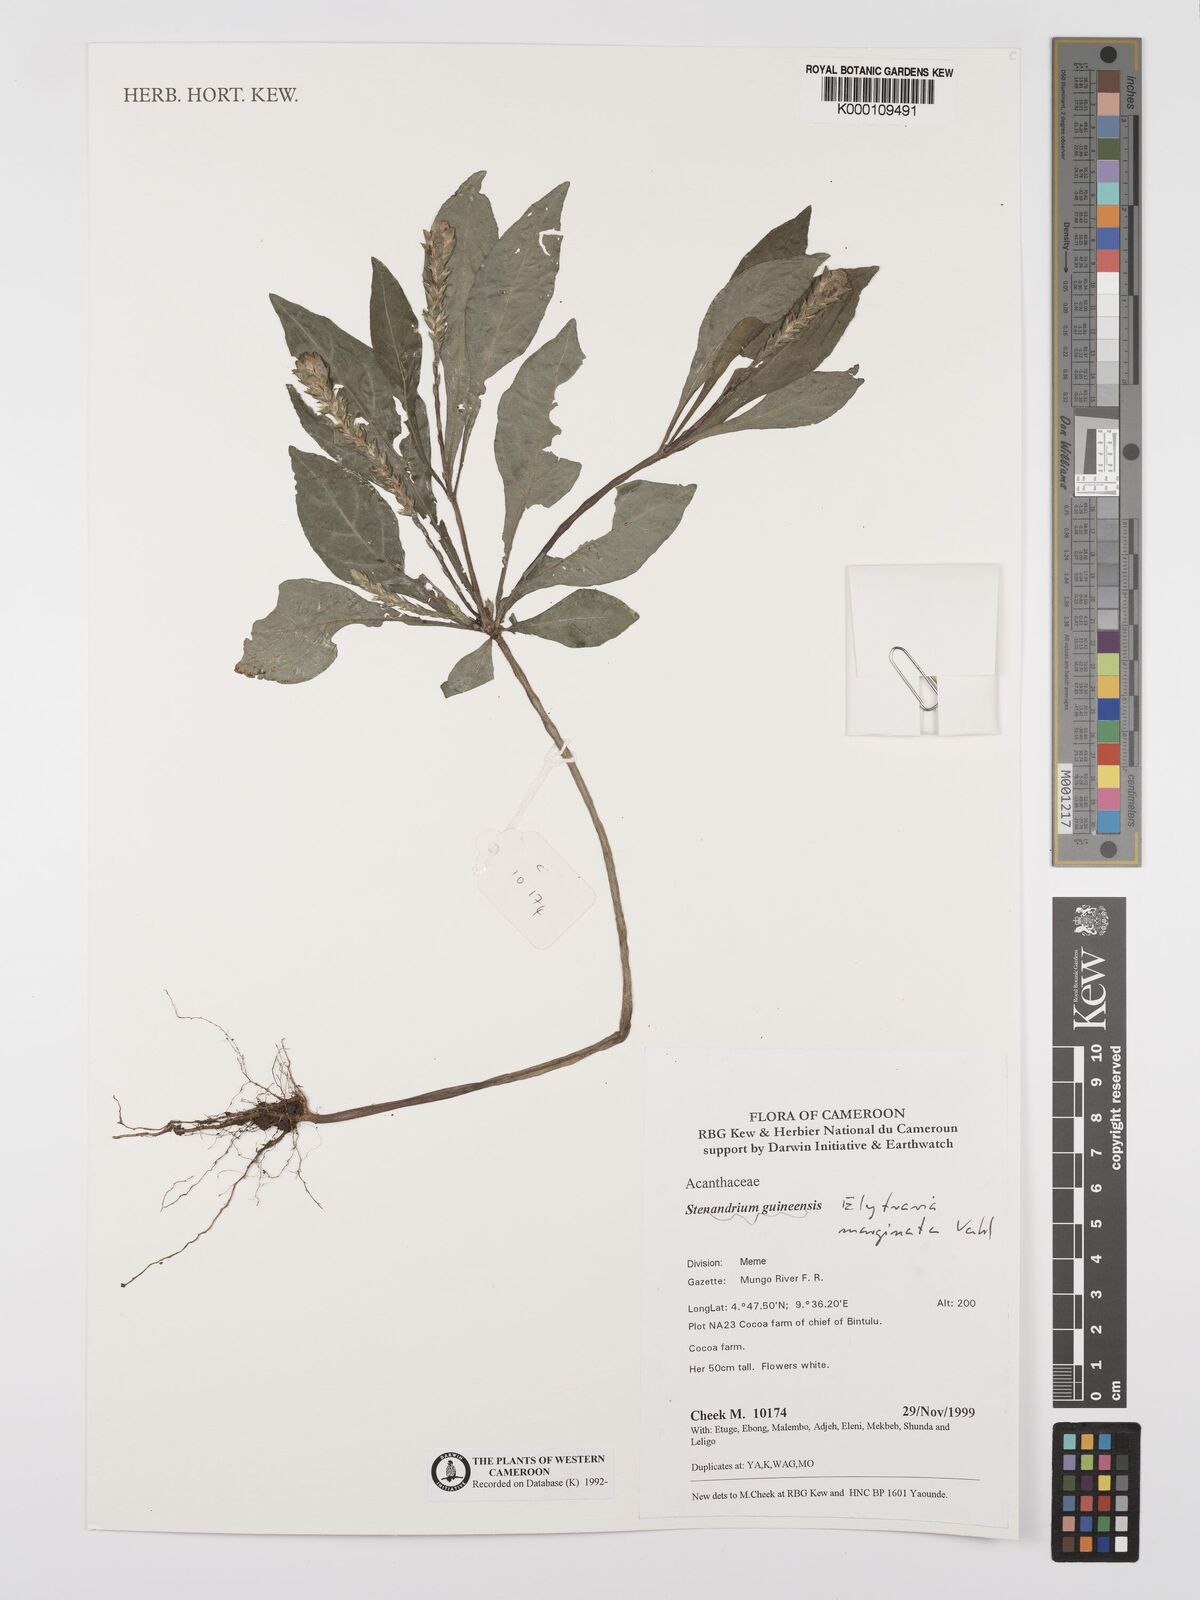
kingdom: Plantae
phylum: Tracheophyta
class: Magnoliopsida
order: Lamiales
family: Acanthaceae
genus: Elytraria
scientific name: Elytraria marginata
